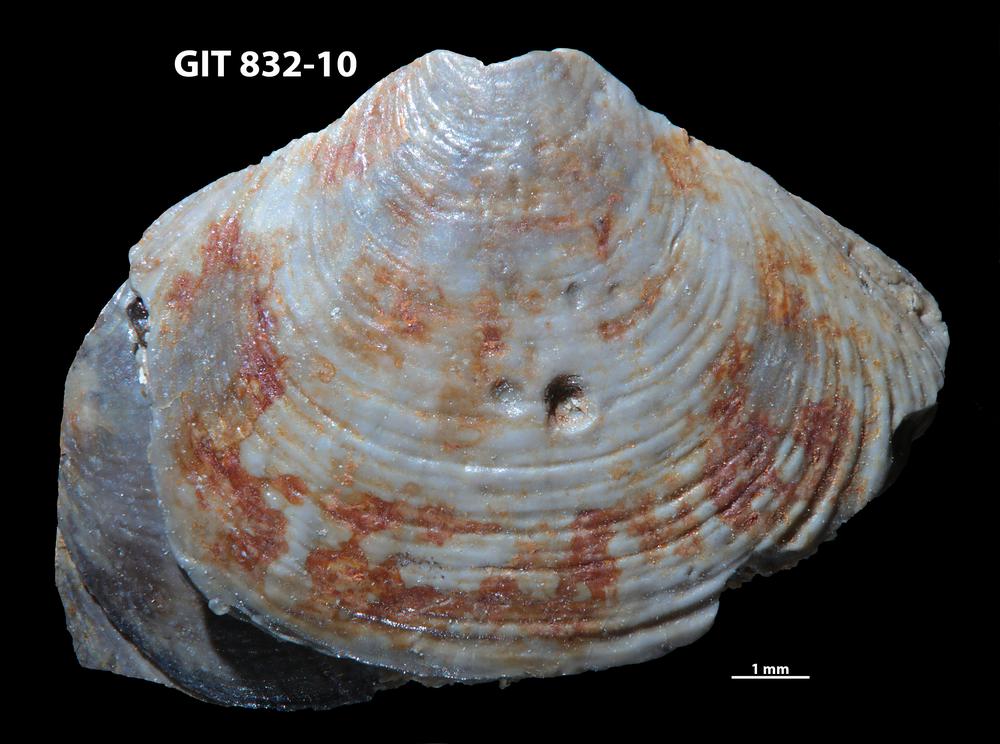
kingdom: Animalia
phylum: Brachiopoda
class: Lingulata
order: Lingulida
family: Obolidae
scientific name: Obolidae
